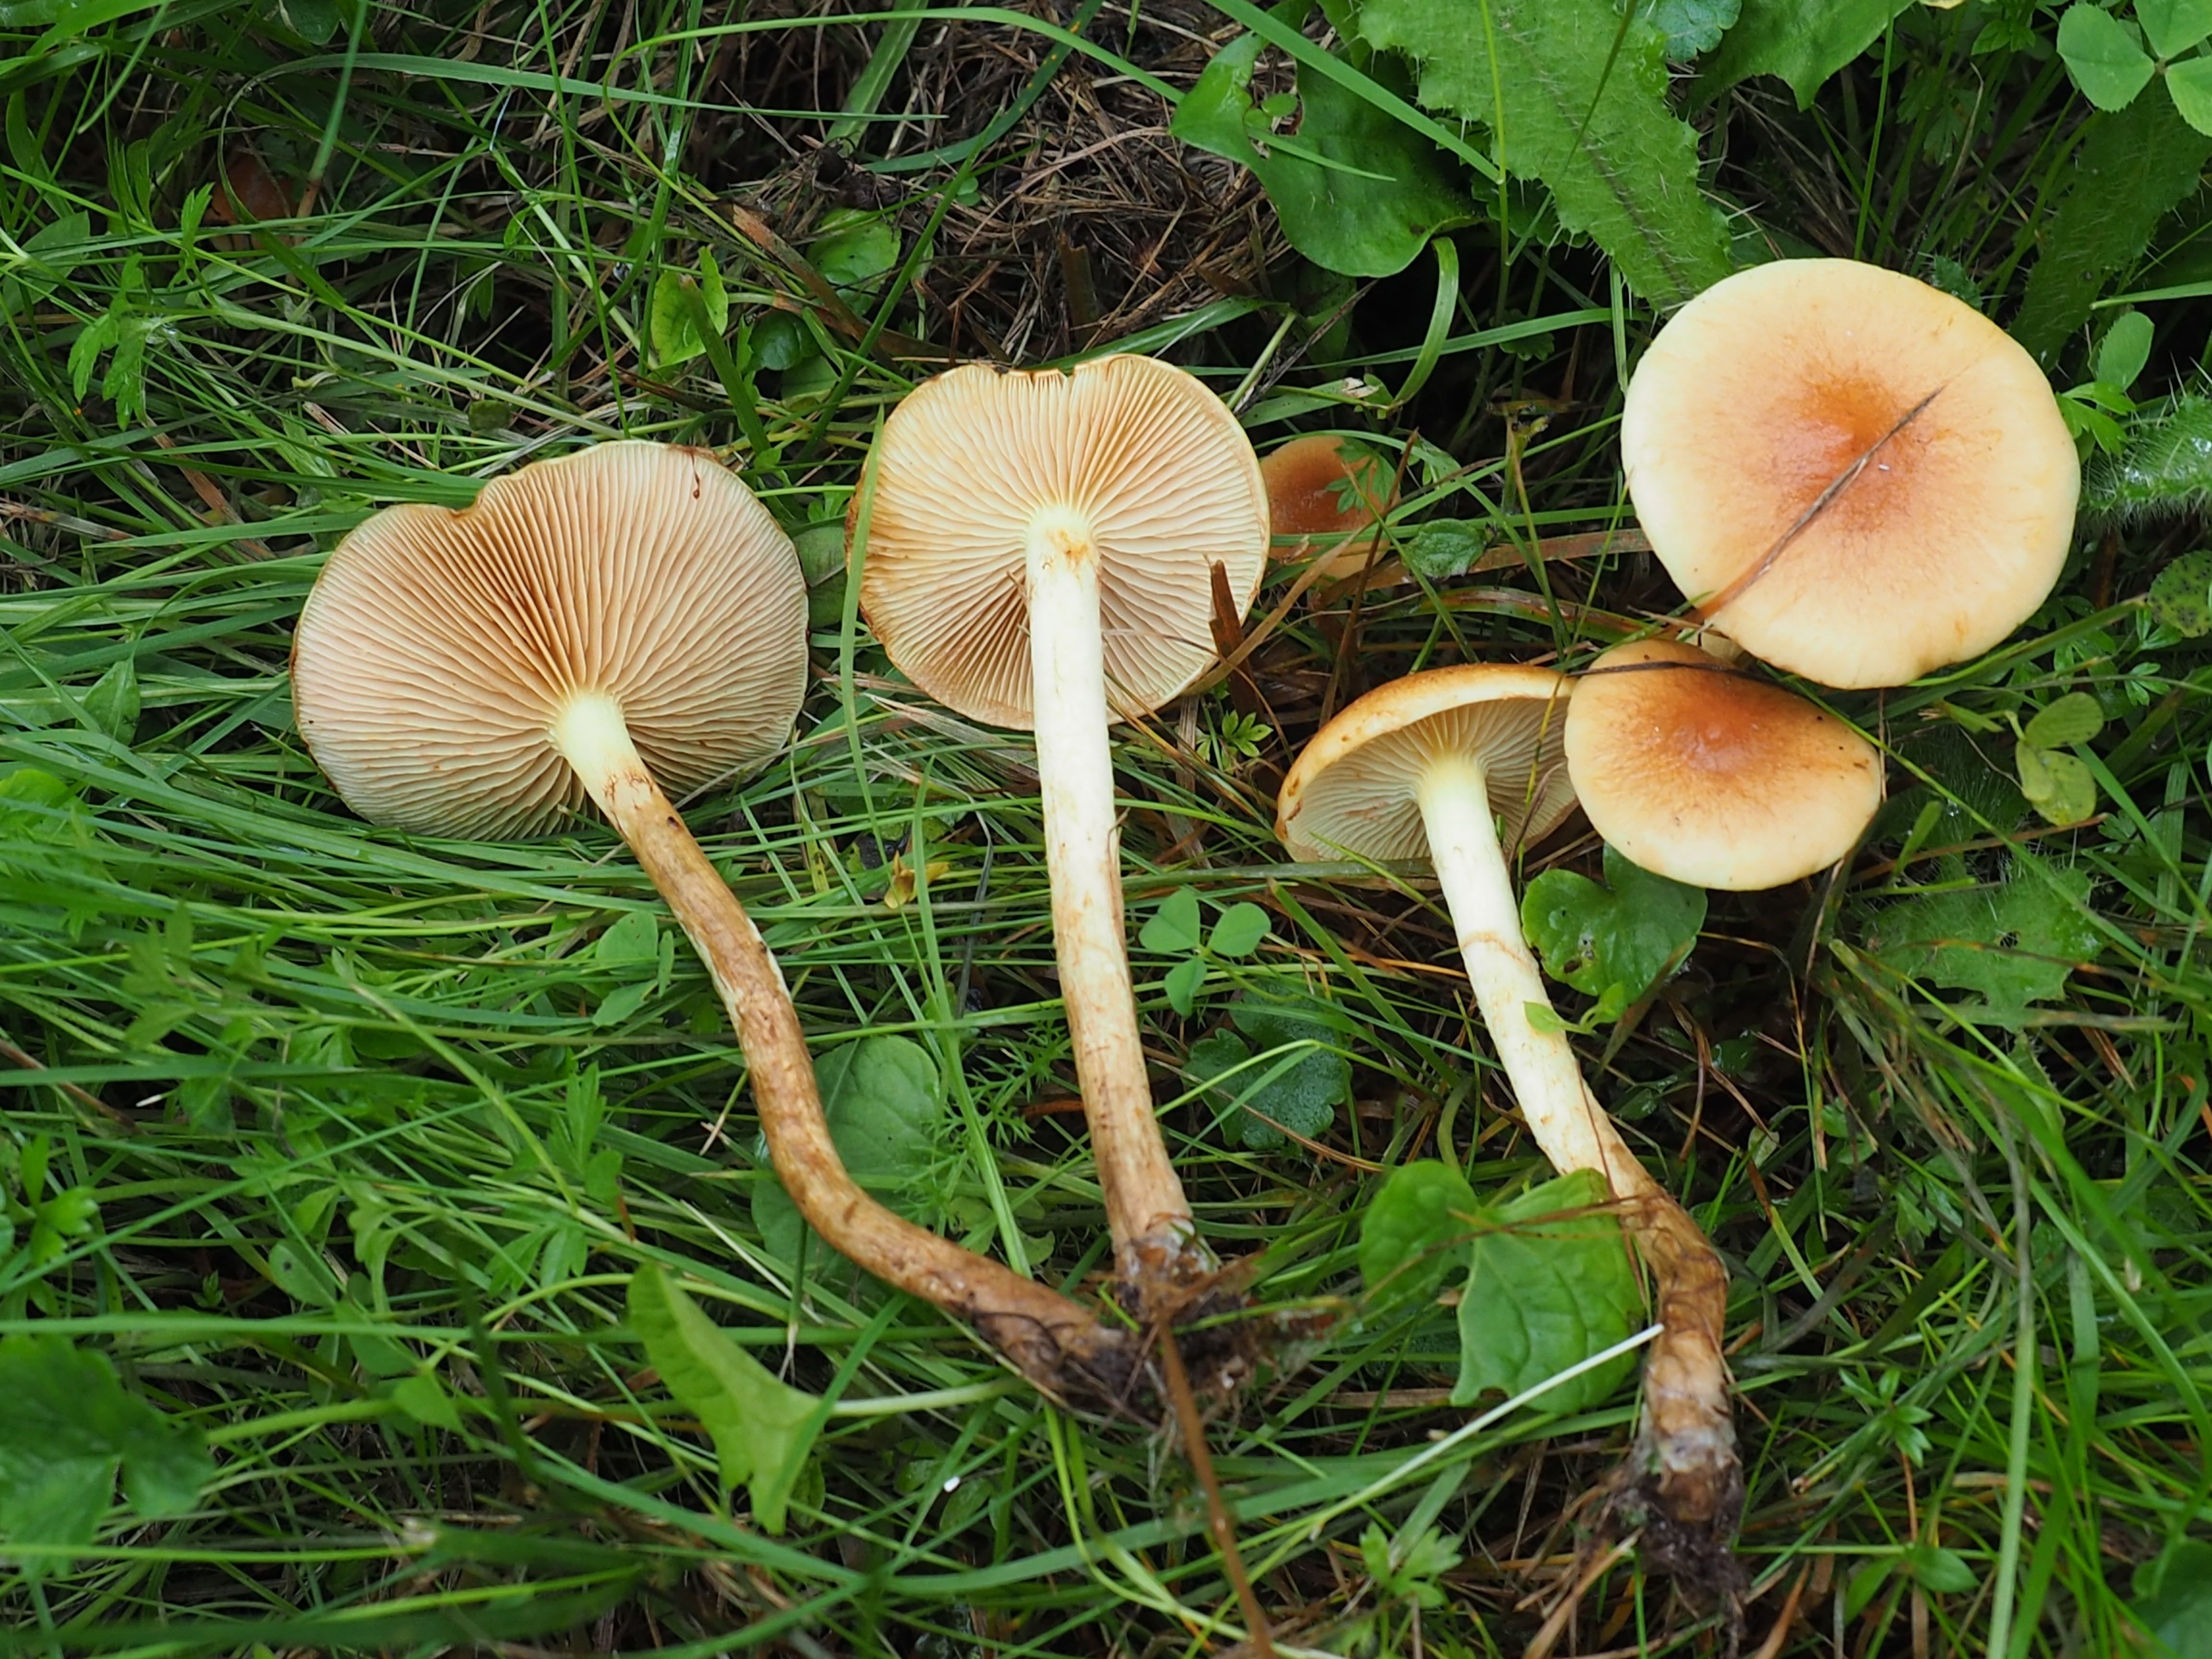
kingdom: Fungi
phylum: Basidiomycota
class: Agaricomycetes
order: Agaricales
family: Hymenogastraceae
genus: Flammula
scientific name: Flammula alnicola
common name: Alder scalycap
